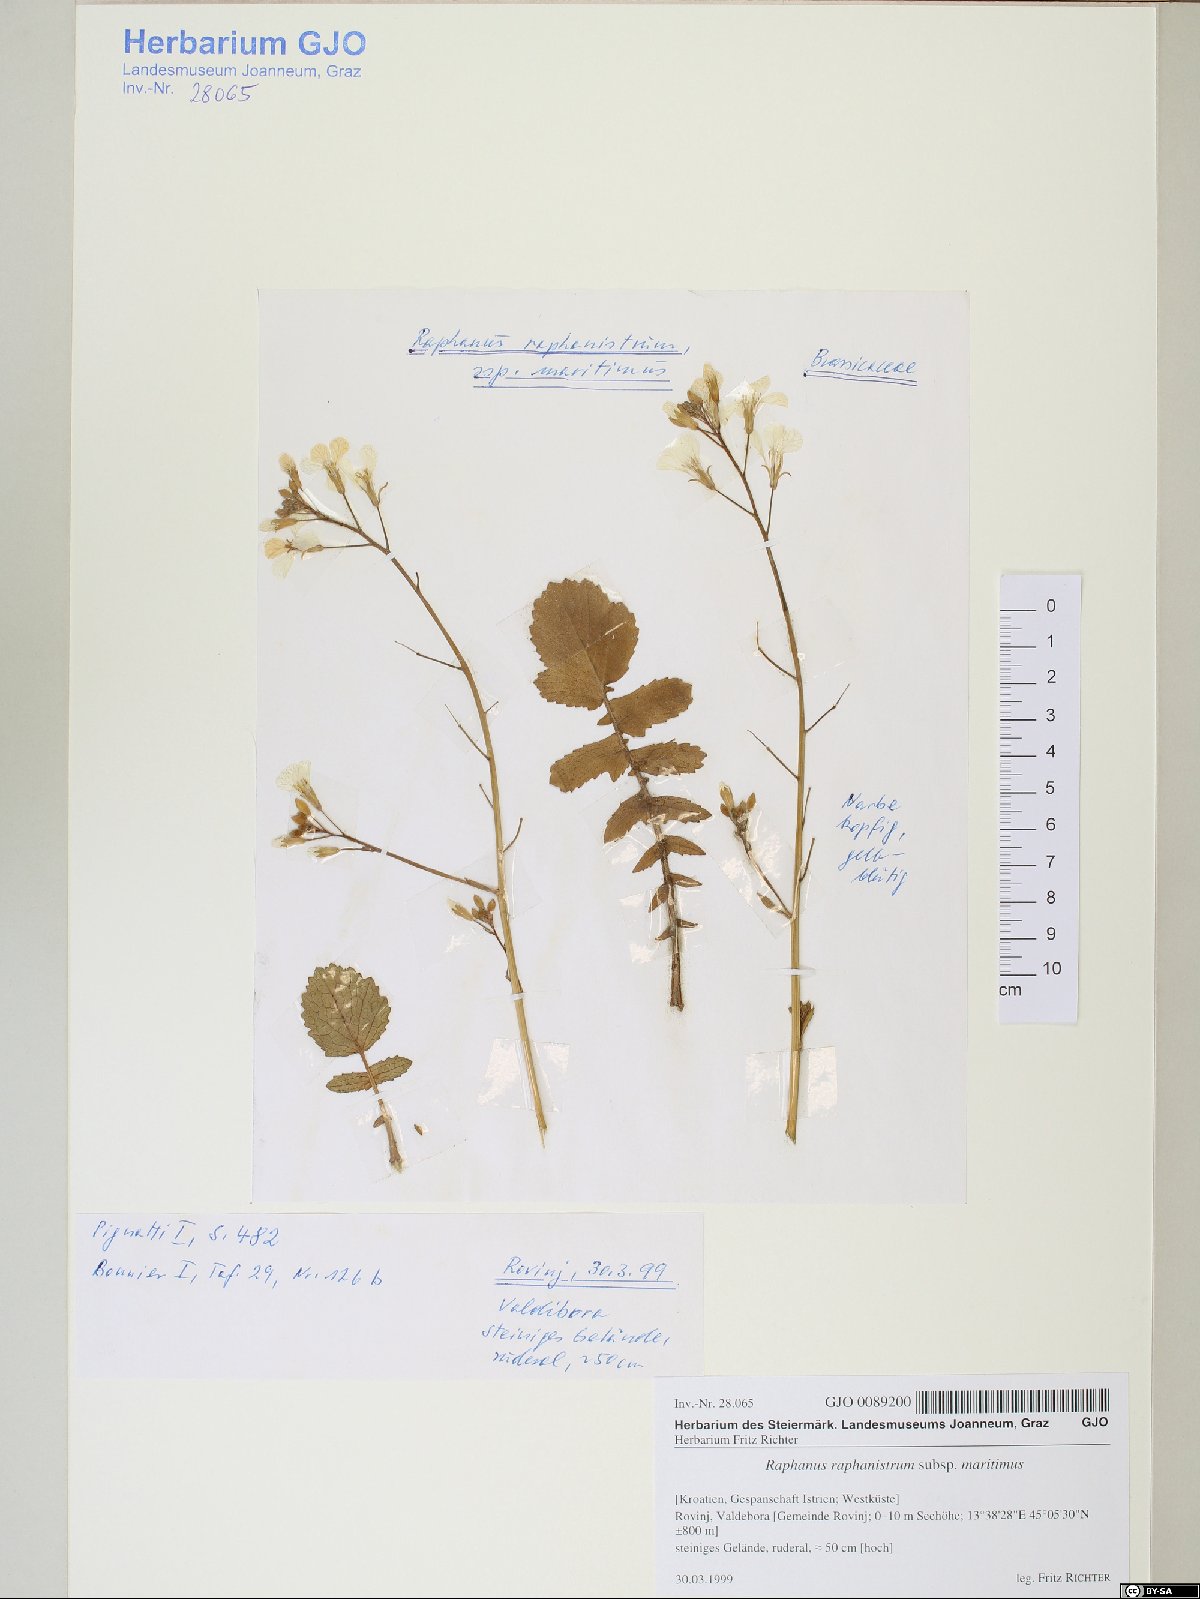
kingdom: Plantae
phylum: Tracheophyta
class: Magnoliopsida
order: Brassicales
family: Brassicaceae
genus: Raphanus
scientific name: Raphanus raphanistrum
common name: Wild radish
